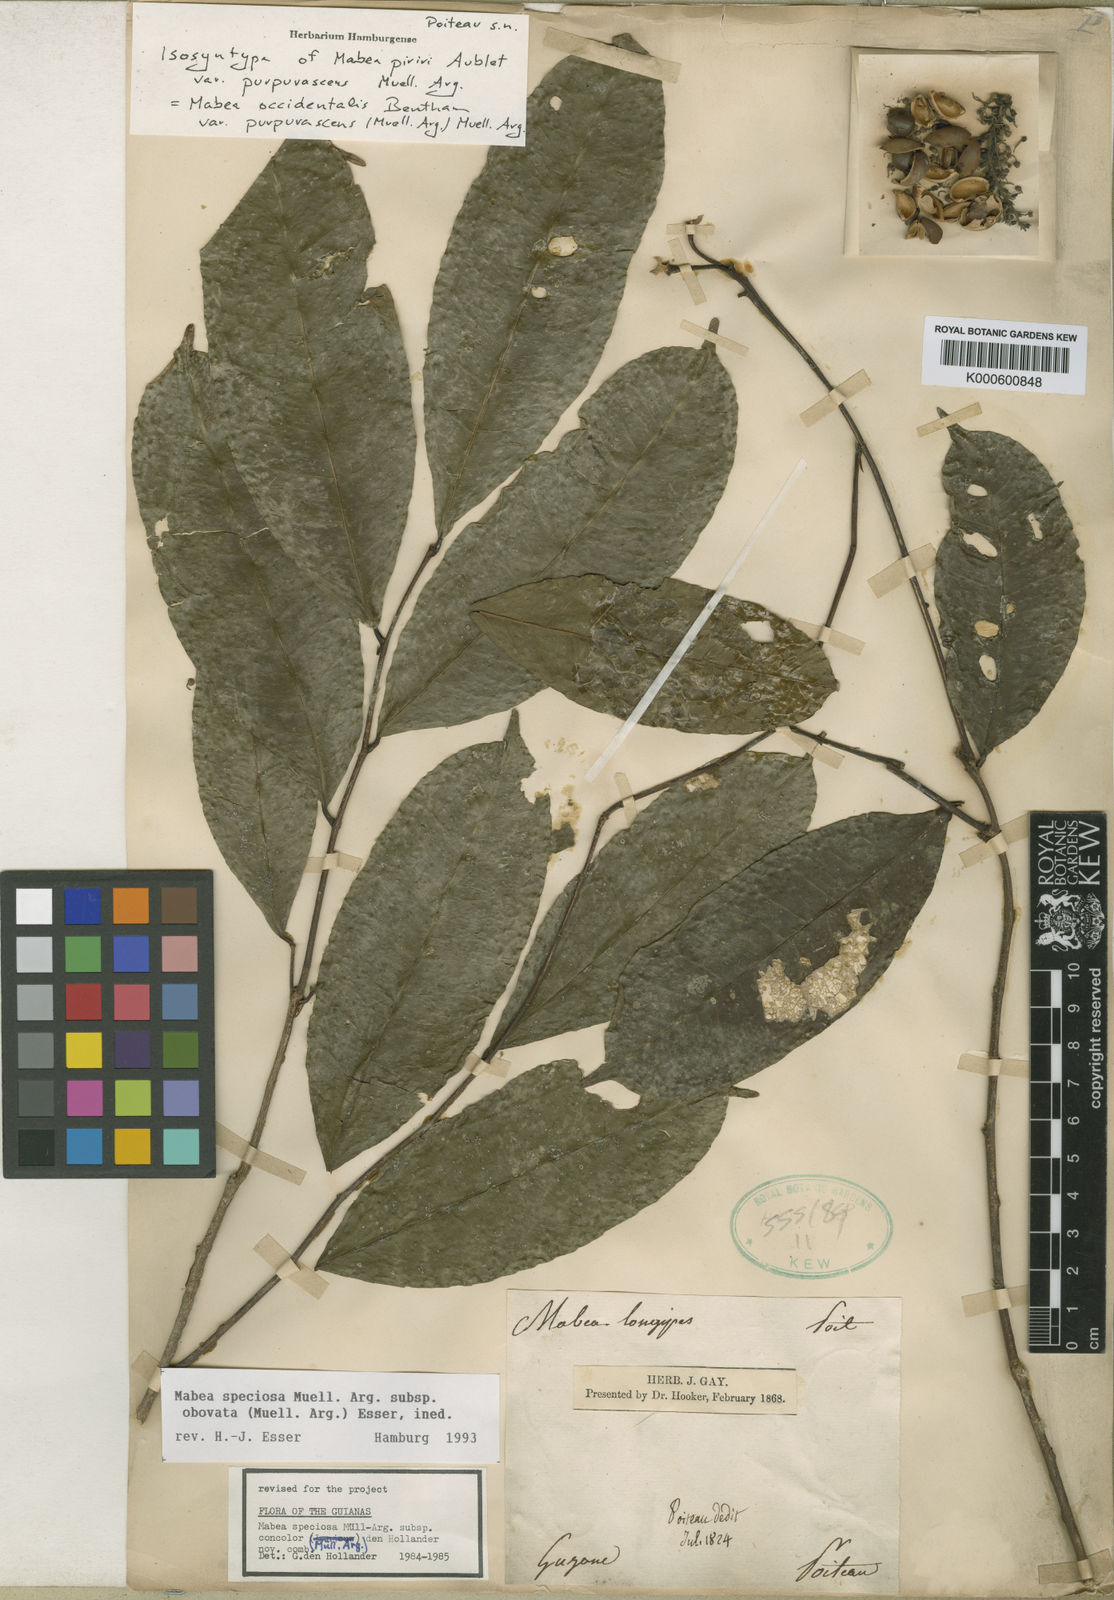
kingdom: Plantae
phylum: Tracheophyta
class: Magnoliopsida
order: Malpighiales
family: Euphorbiaceae
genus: Mabea
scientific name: Mabea
